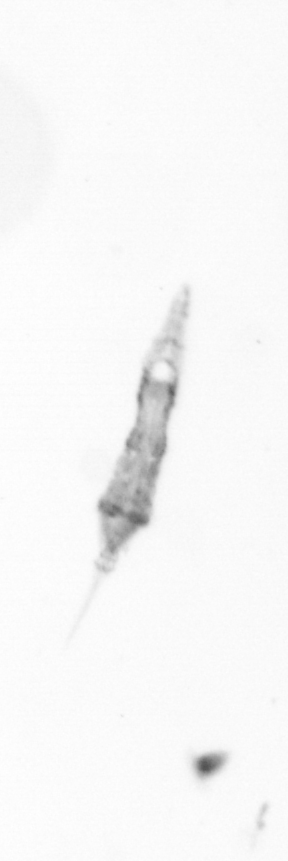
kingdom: Chromista
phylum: Ochrophyta
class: Bacillariophyceae
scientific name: Bacillariophyceae
